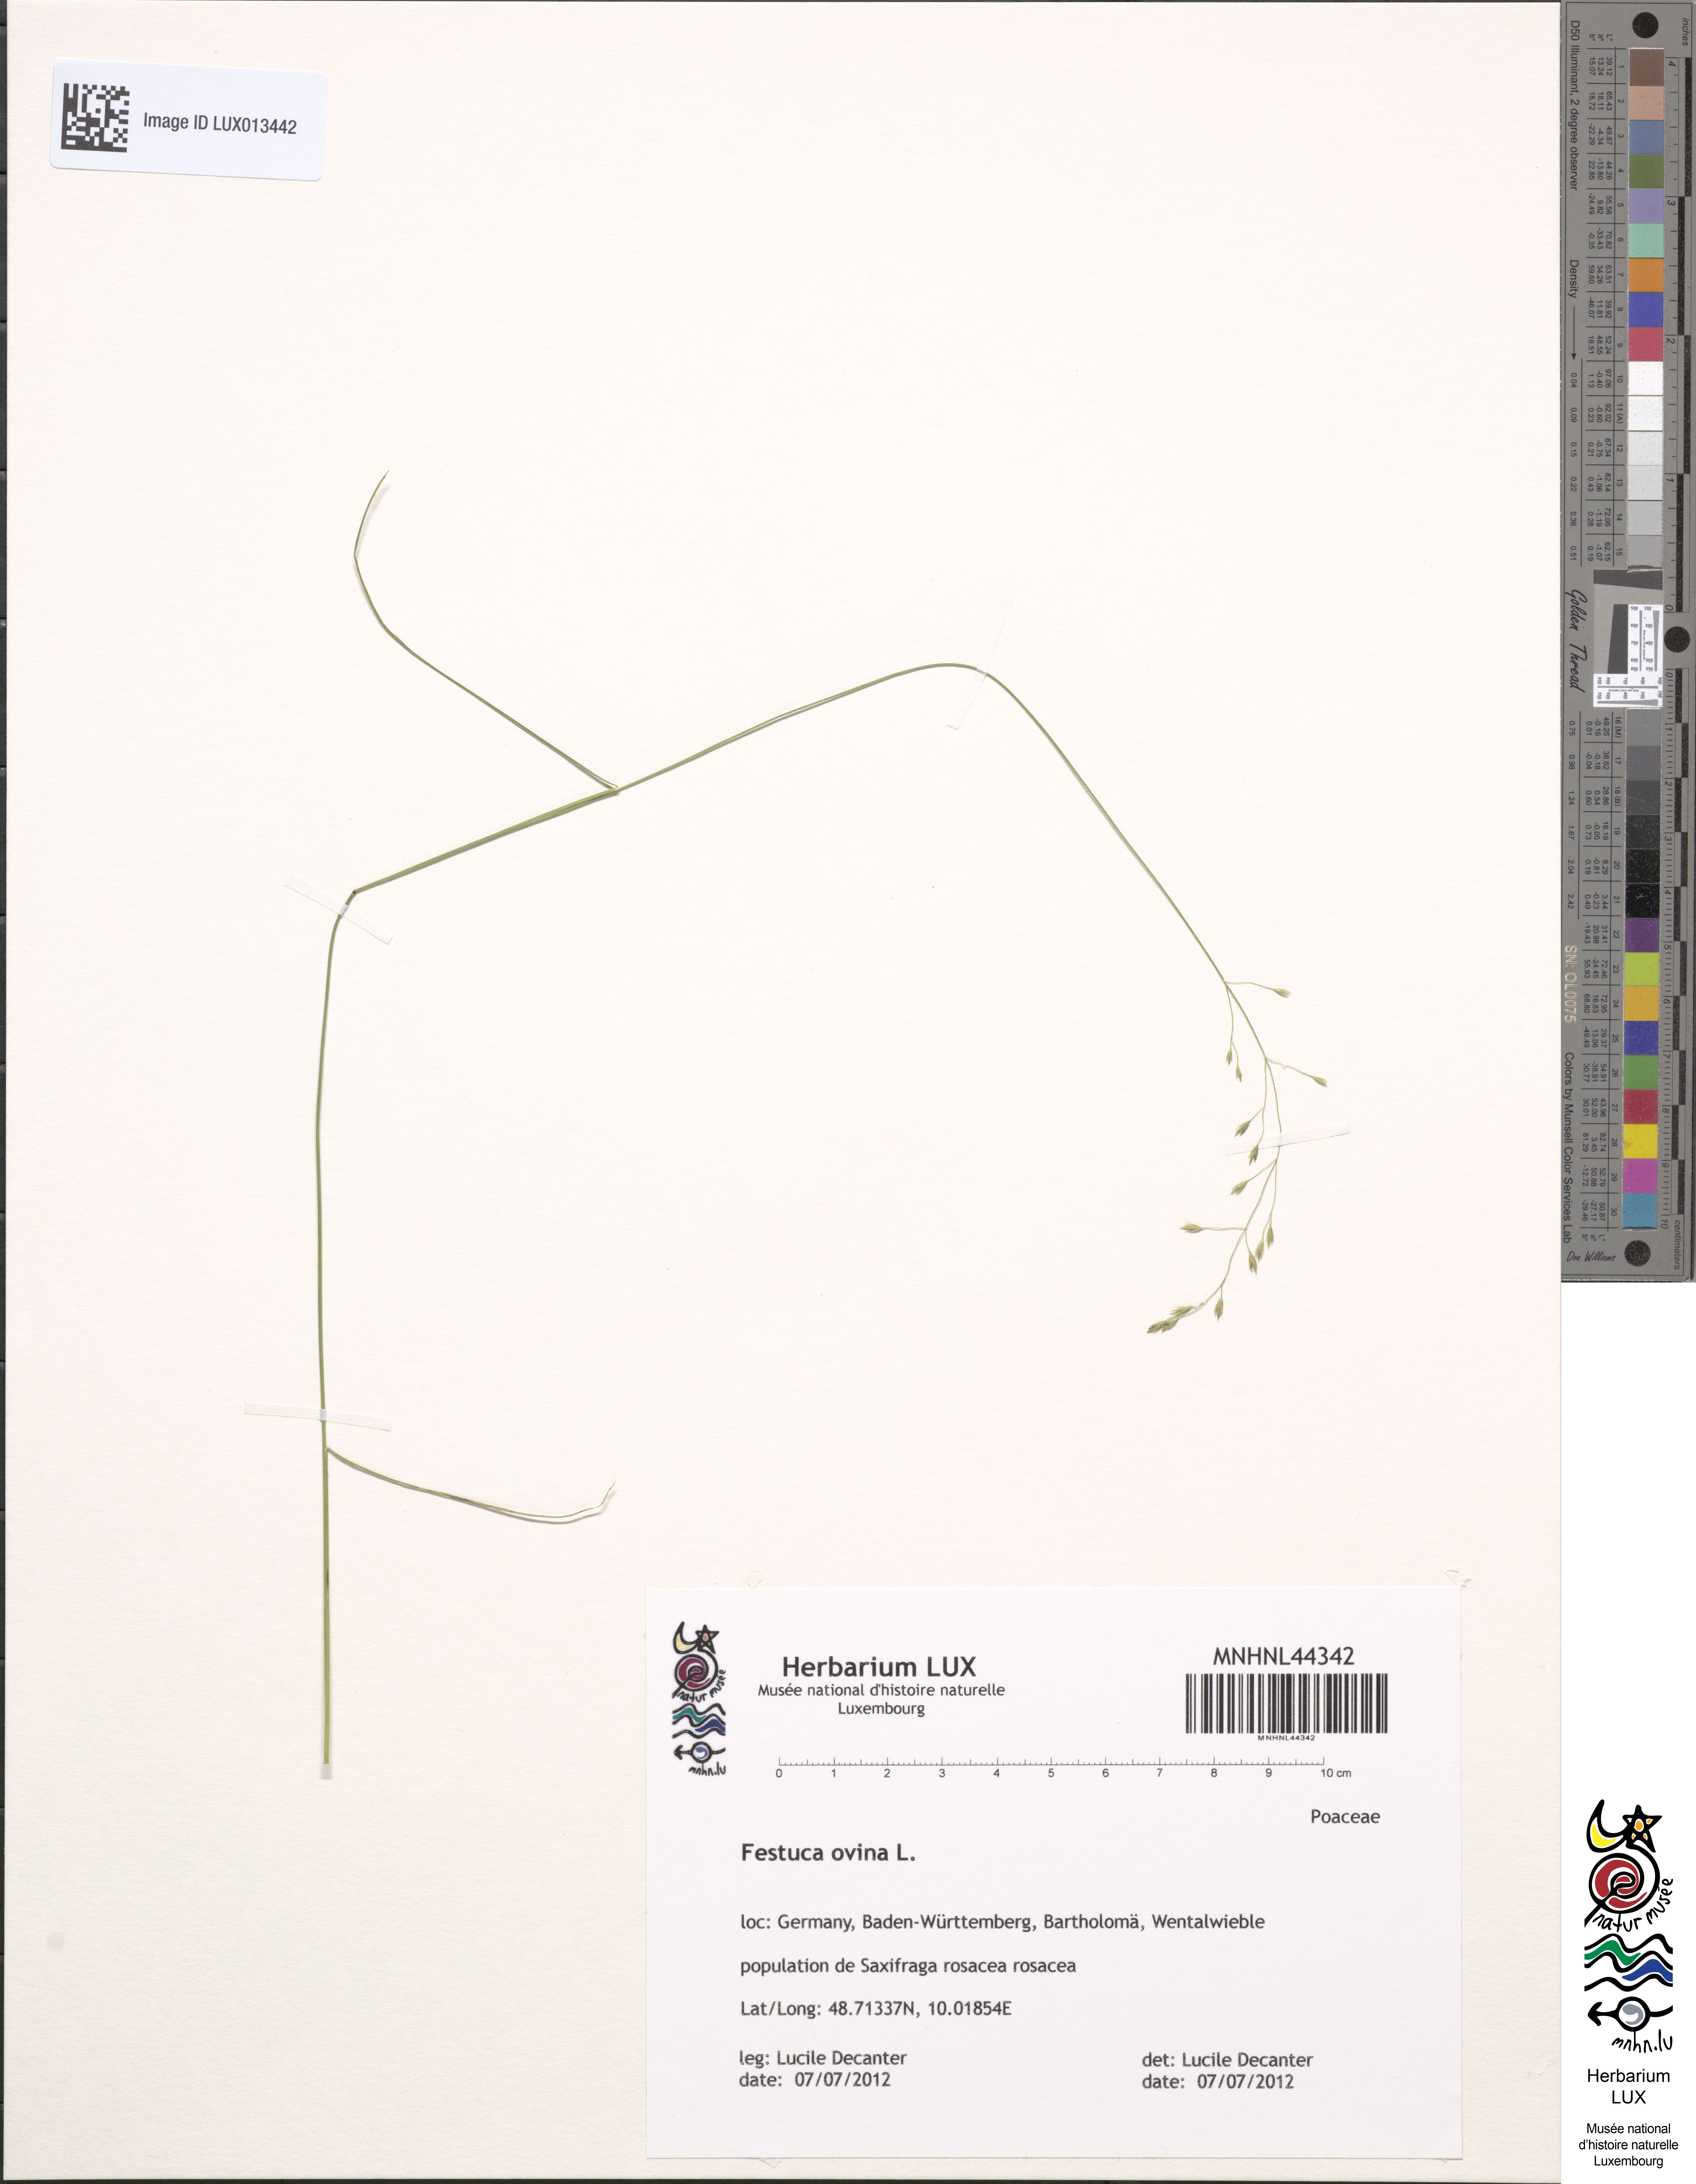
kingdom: Plantae
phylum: Tracheophyta
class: Liliopsida
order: Poales
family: Poaceae
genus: Festuca
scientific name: Festuca ovina
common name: Sheep fescue
